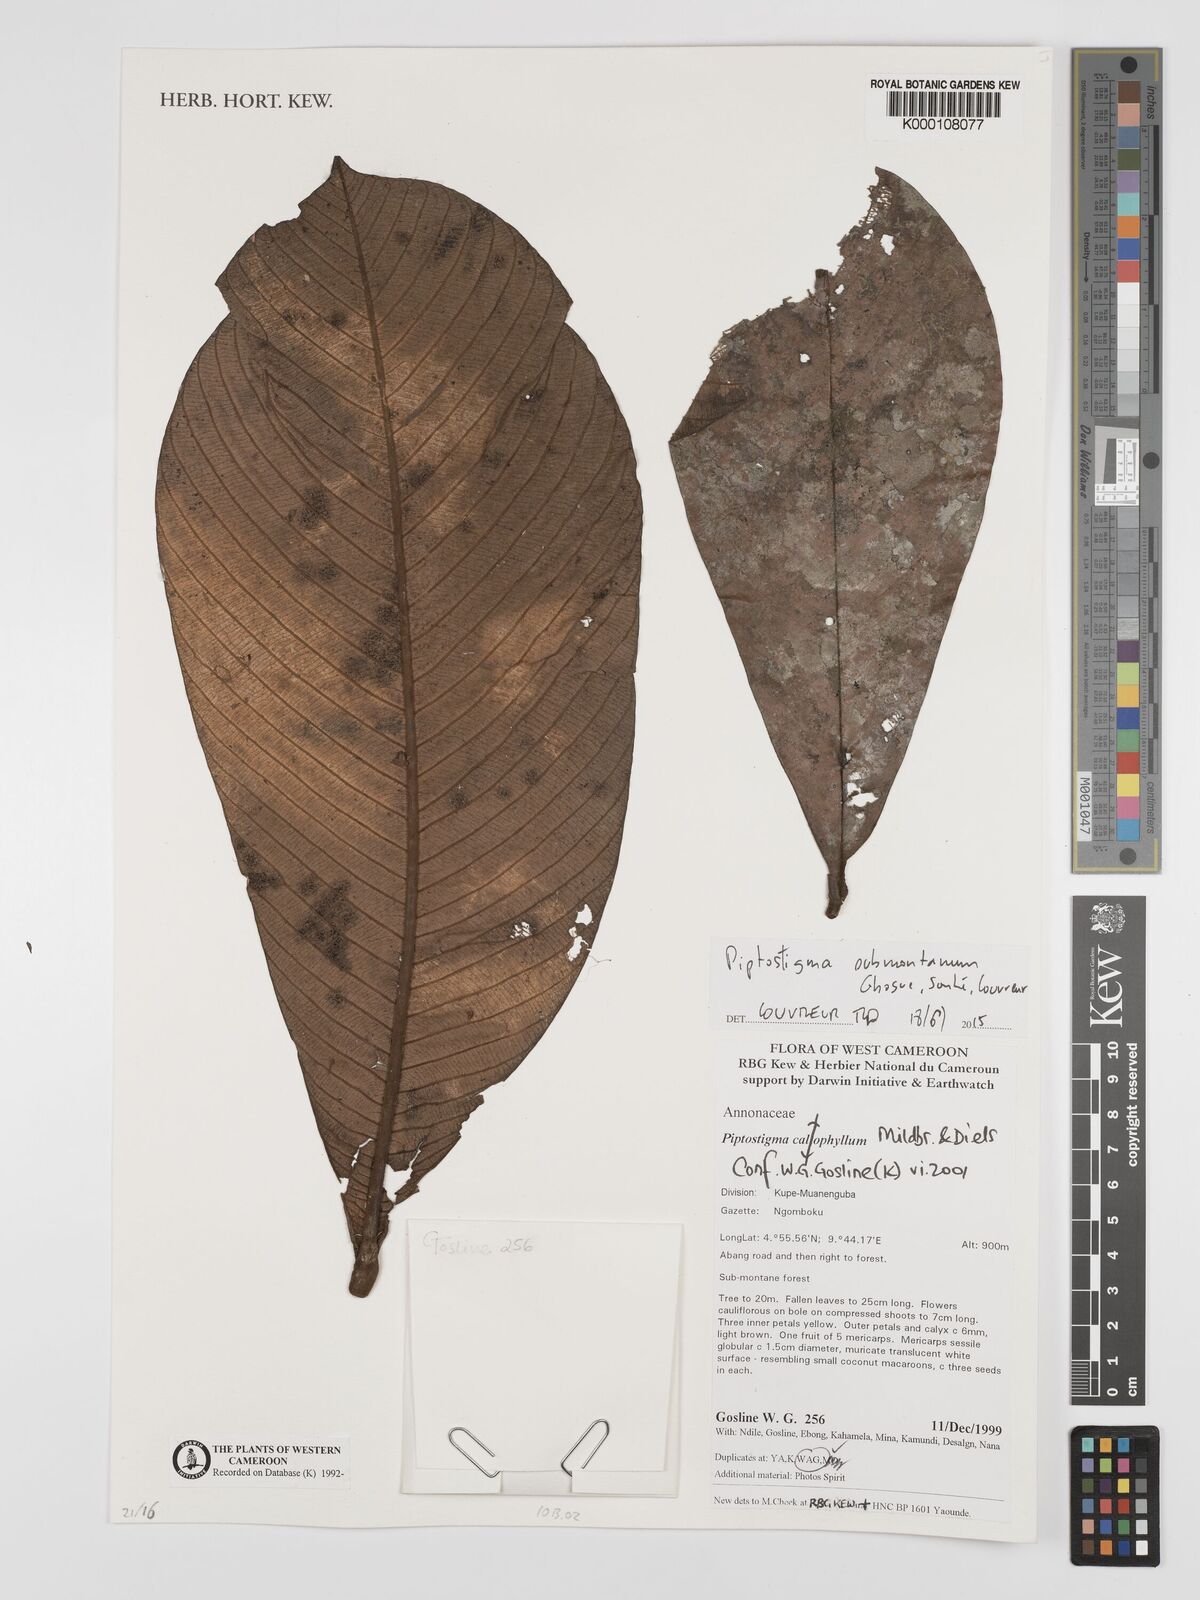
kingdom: Plantae
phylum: Tracheophyta
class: Magnoliopsida
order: Magnoliales
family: Annonaceae
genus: Piptostigma
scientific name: Piptostigma calophyllum
